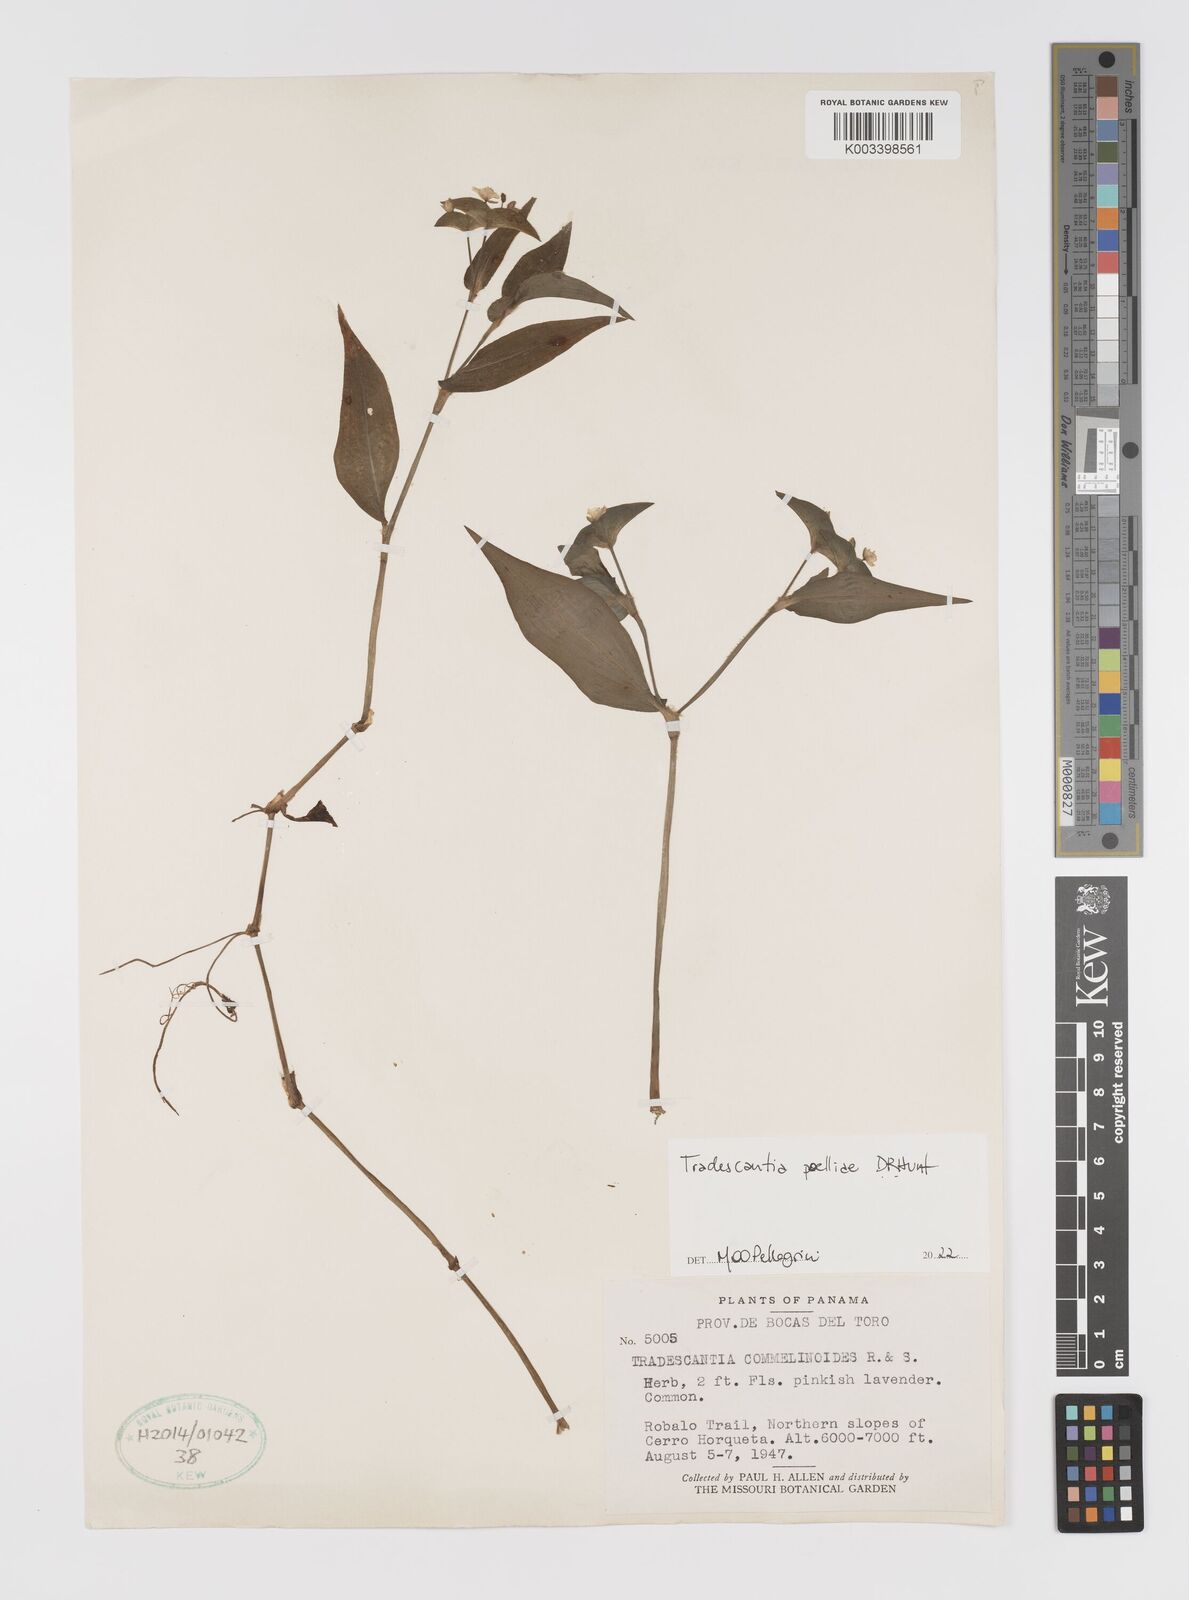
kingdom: Plantae
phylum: Tracheophyta
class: Liliopsida
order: Commelinales
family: Commelinaceae
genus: Tradescantia
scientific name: Tradescantia poelliae
